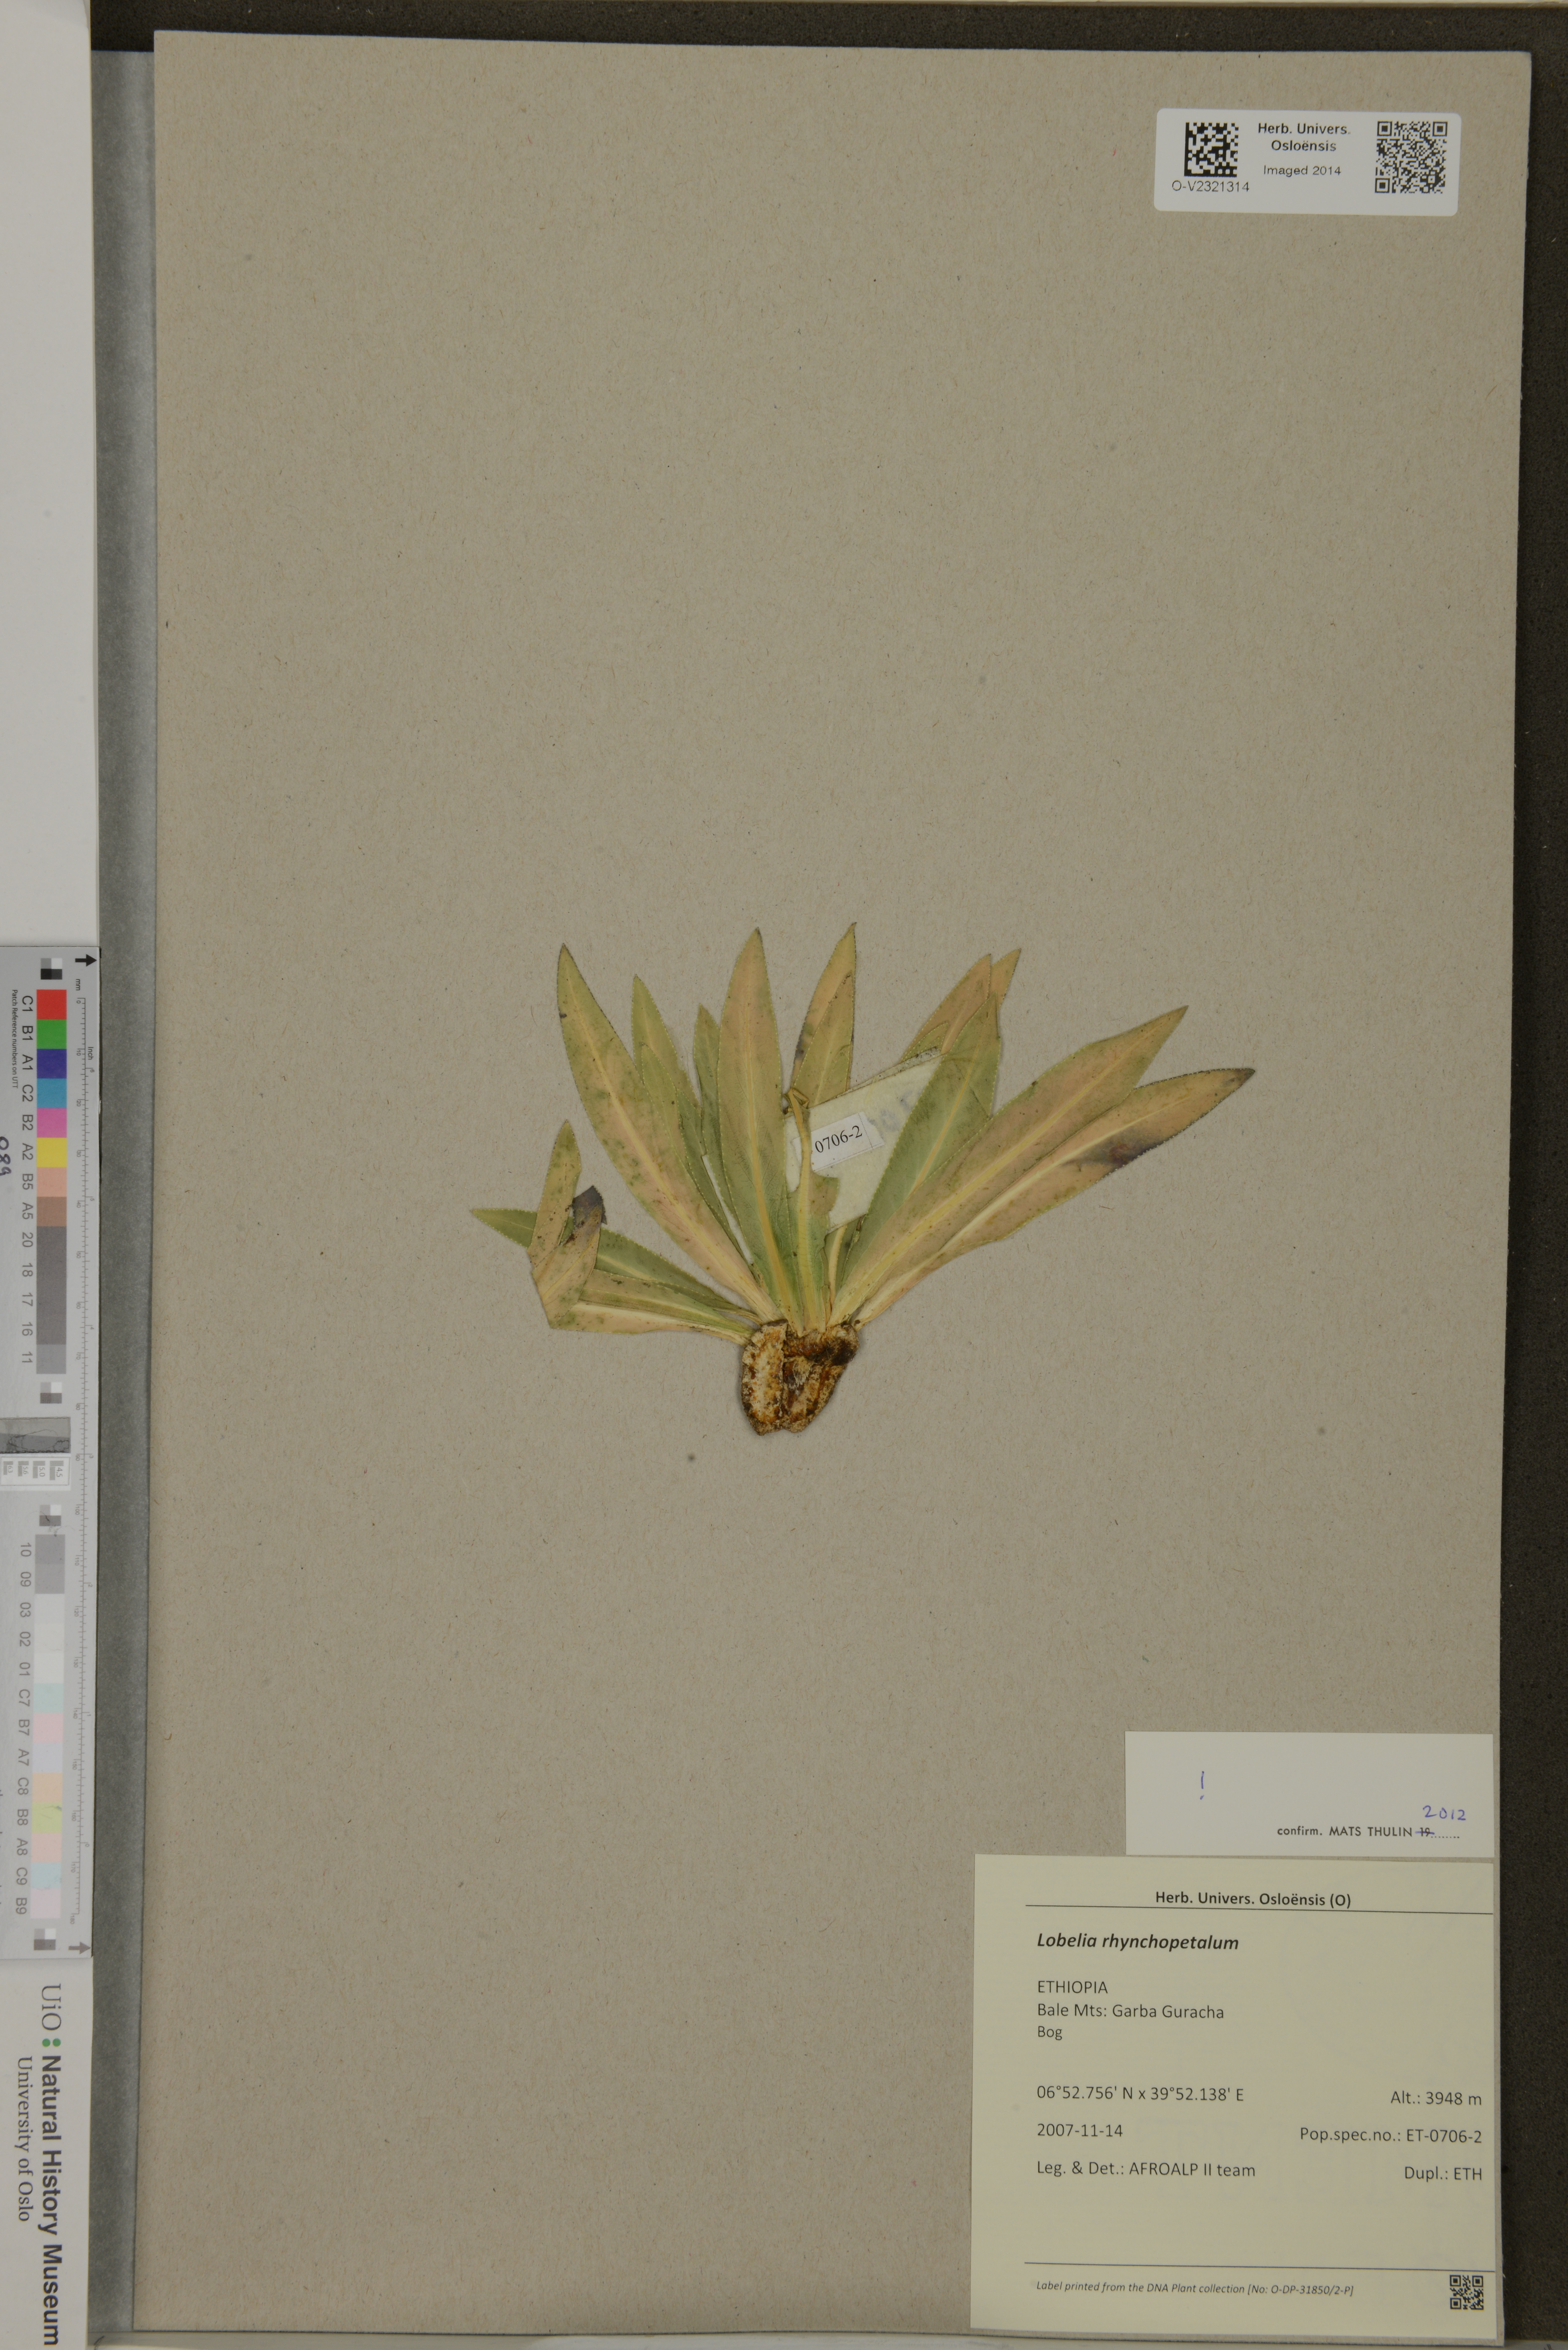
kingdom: Plantae
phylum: Tracheophyta
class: Magnoliopsida
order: Asterales
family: Campanulaceae
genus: Lobelia
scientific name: Lobelia rhynchopetalum
